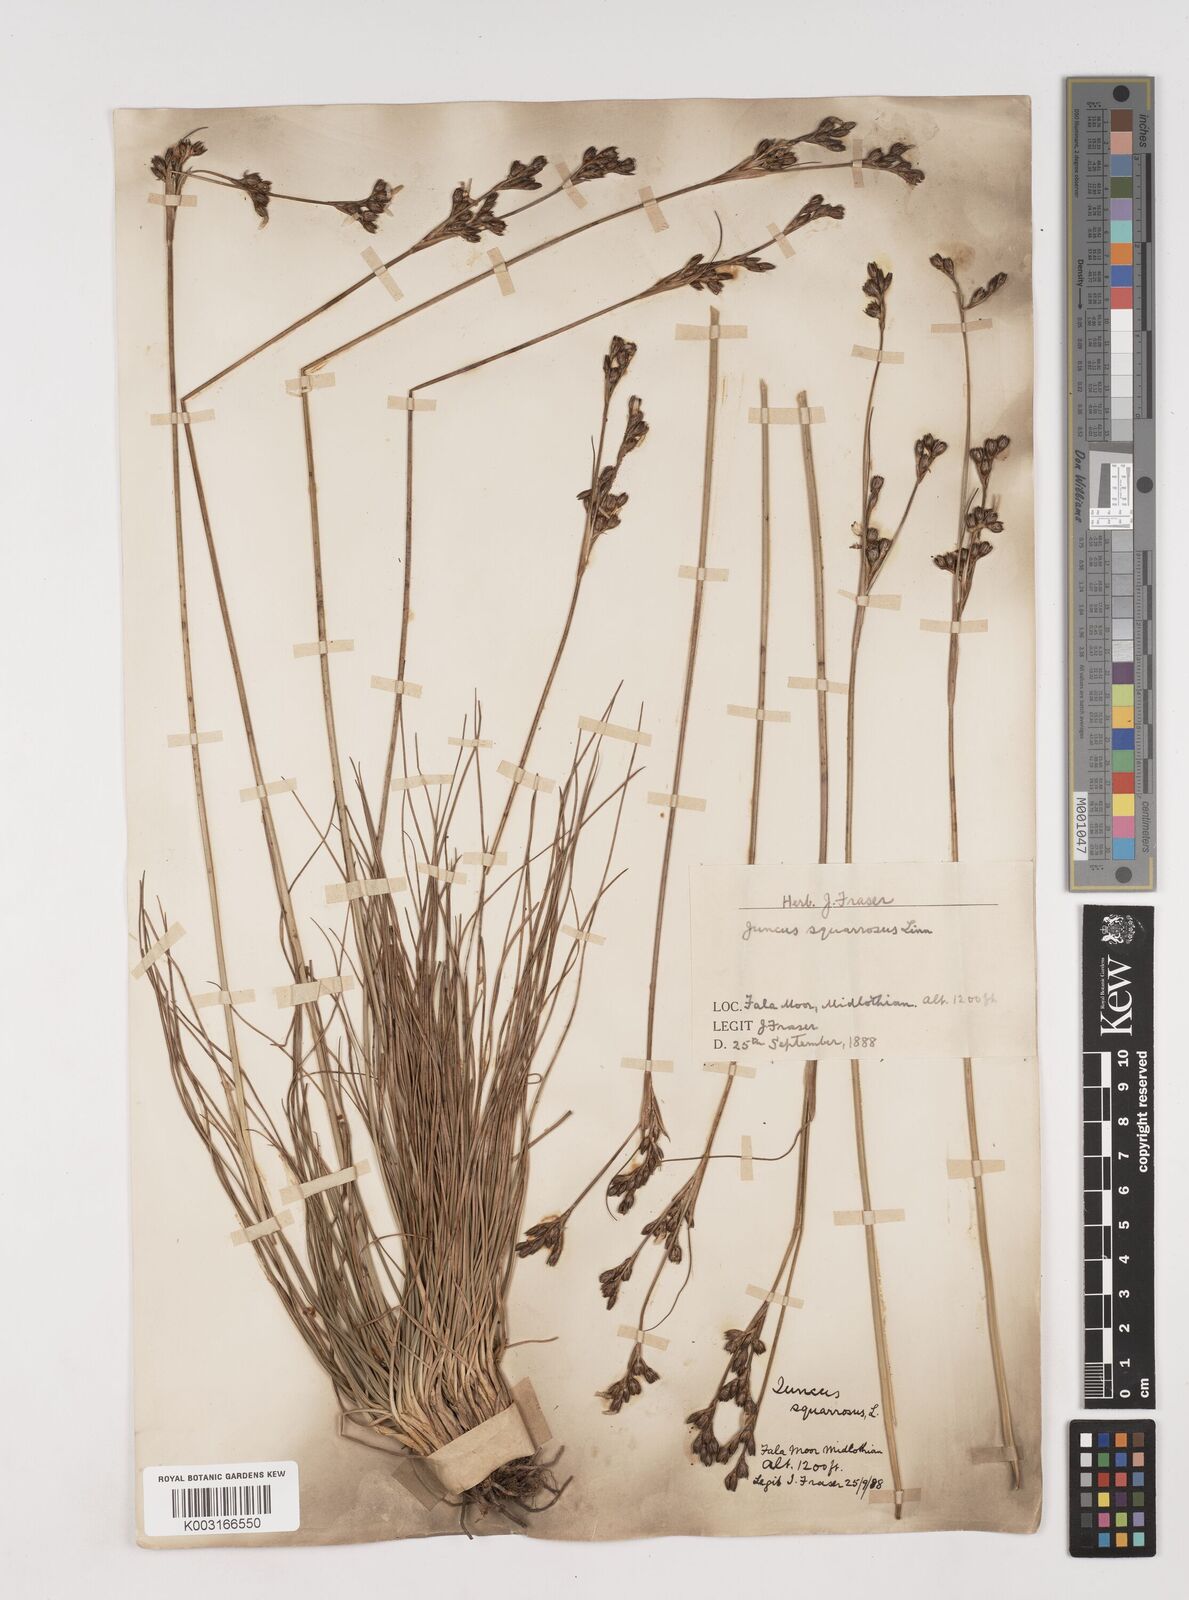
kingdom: Plantae
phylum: Tracheophyta
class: Liliopsida
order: Poales
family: Juncaceae
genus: Juncus
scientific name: Juncus squarrosus
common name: Heath rush
